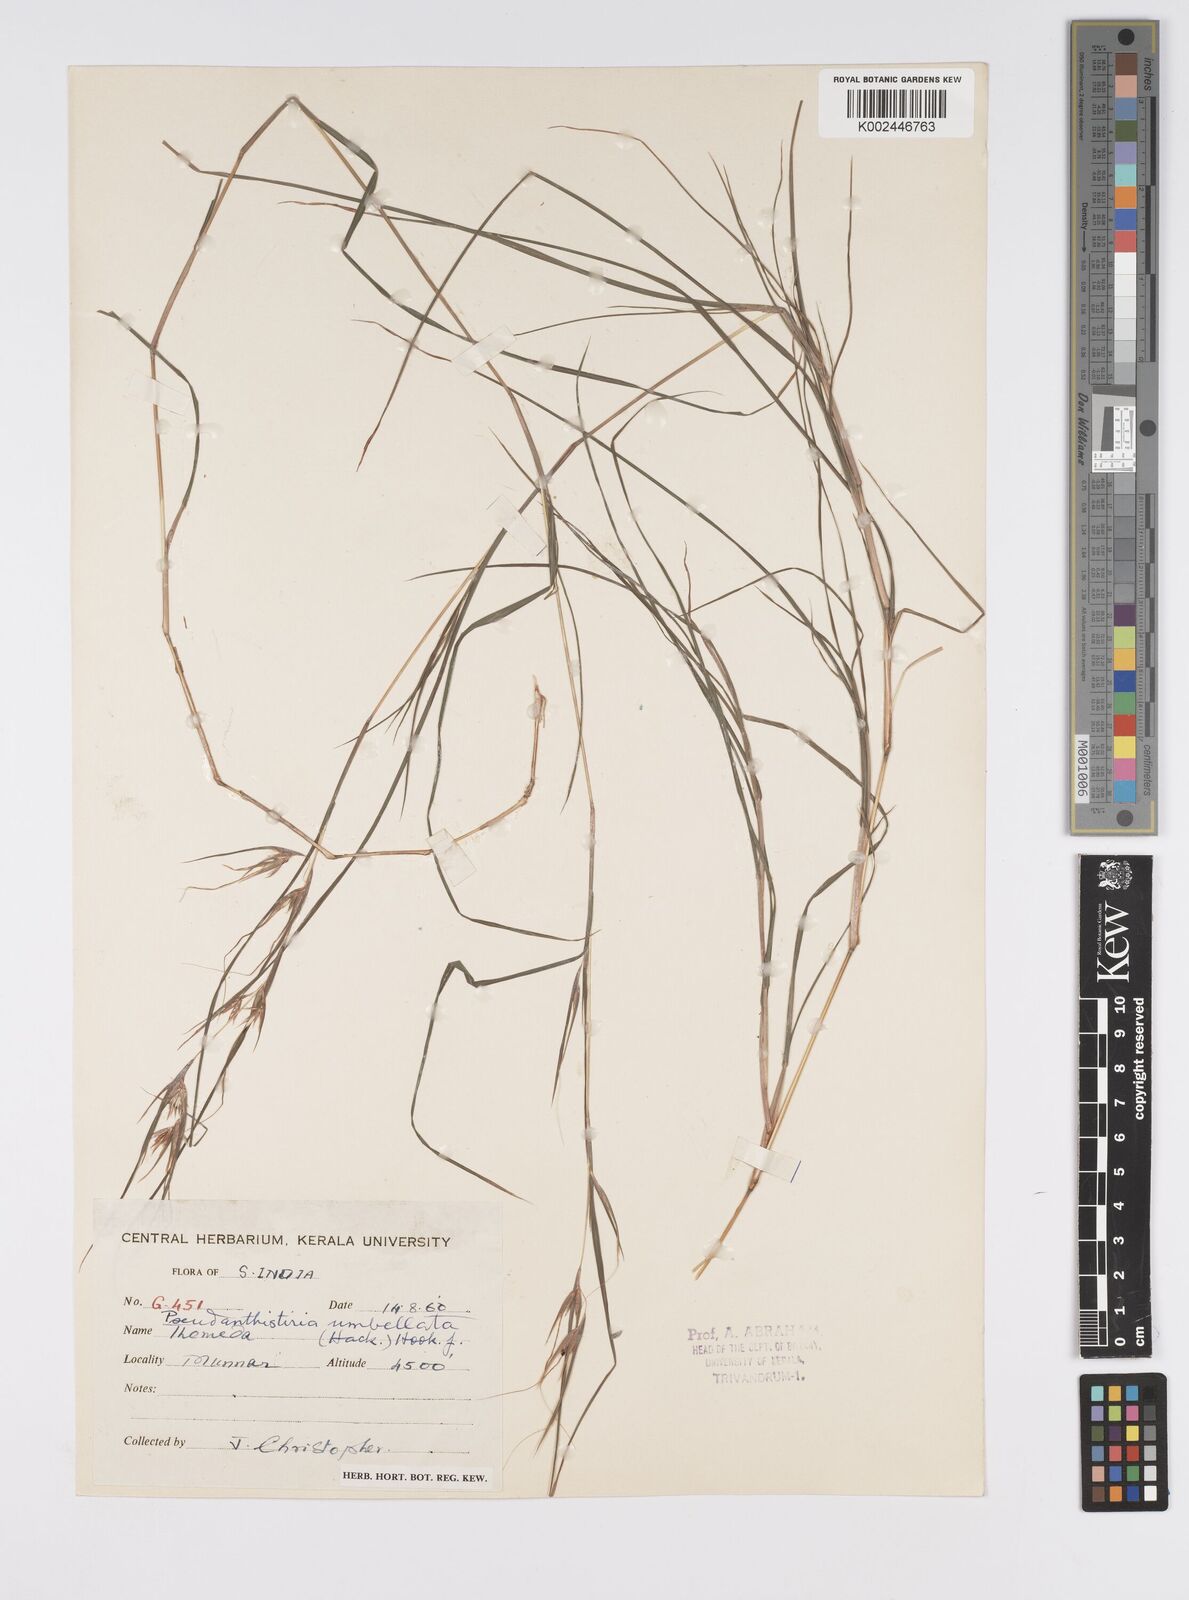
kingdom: Plantae
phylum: Tracheophyta
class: Liliopsida
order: Poales
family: Poaceae
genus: Pseudanthistiria
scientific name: Pseudanthistiria umbellata
